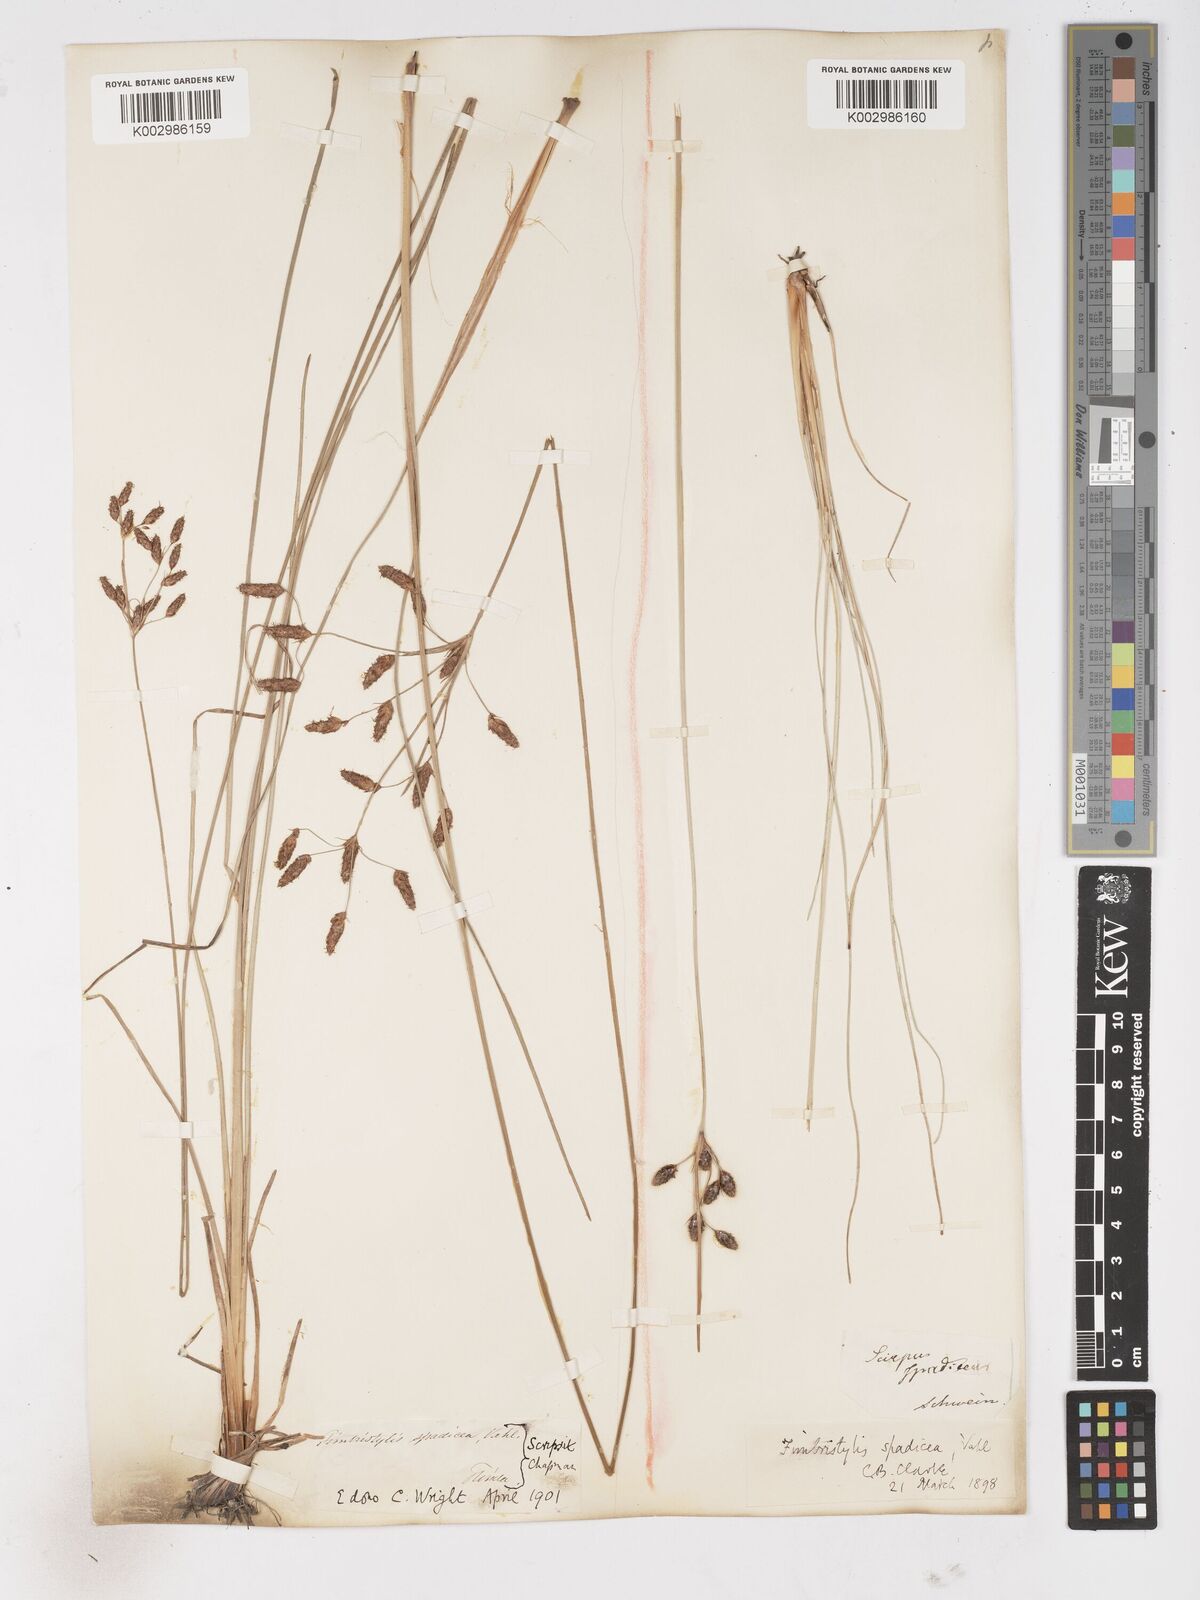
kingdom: Plantae
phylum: Tracheophyta
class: Liliopsida
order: Poales
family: Cyperaceae
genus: Fimbristylis
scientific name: Fimbristylis spadicea
